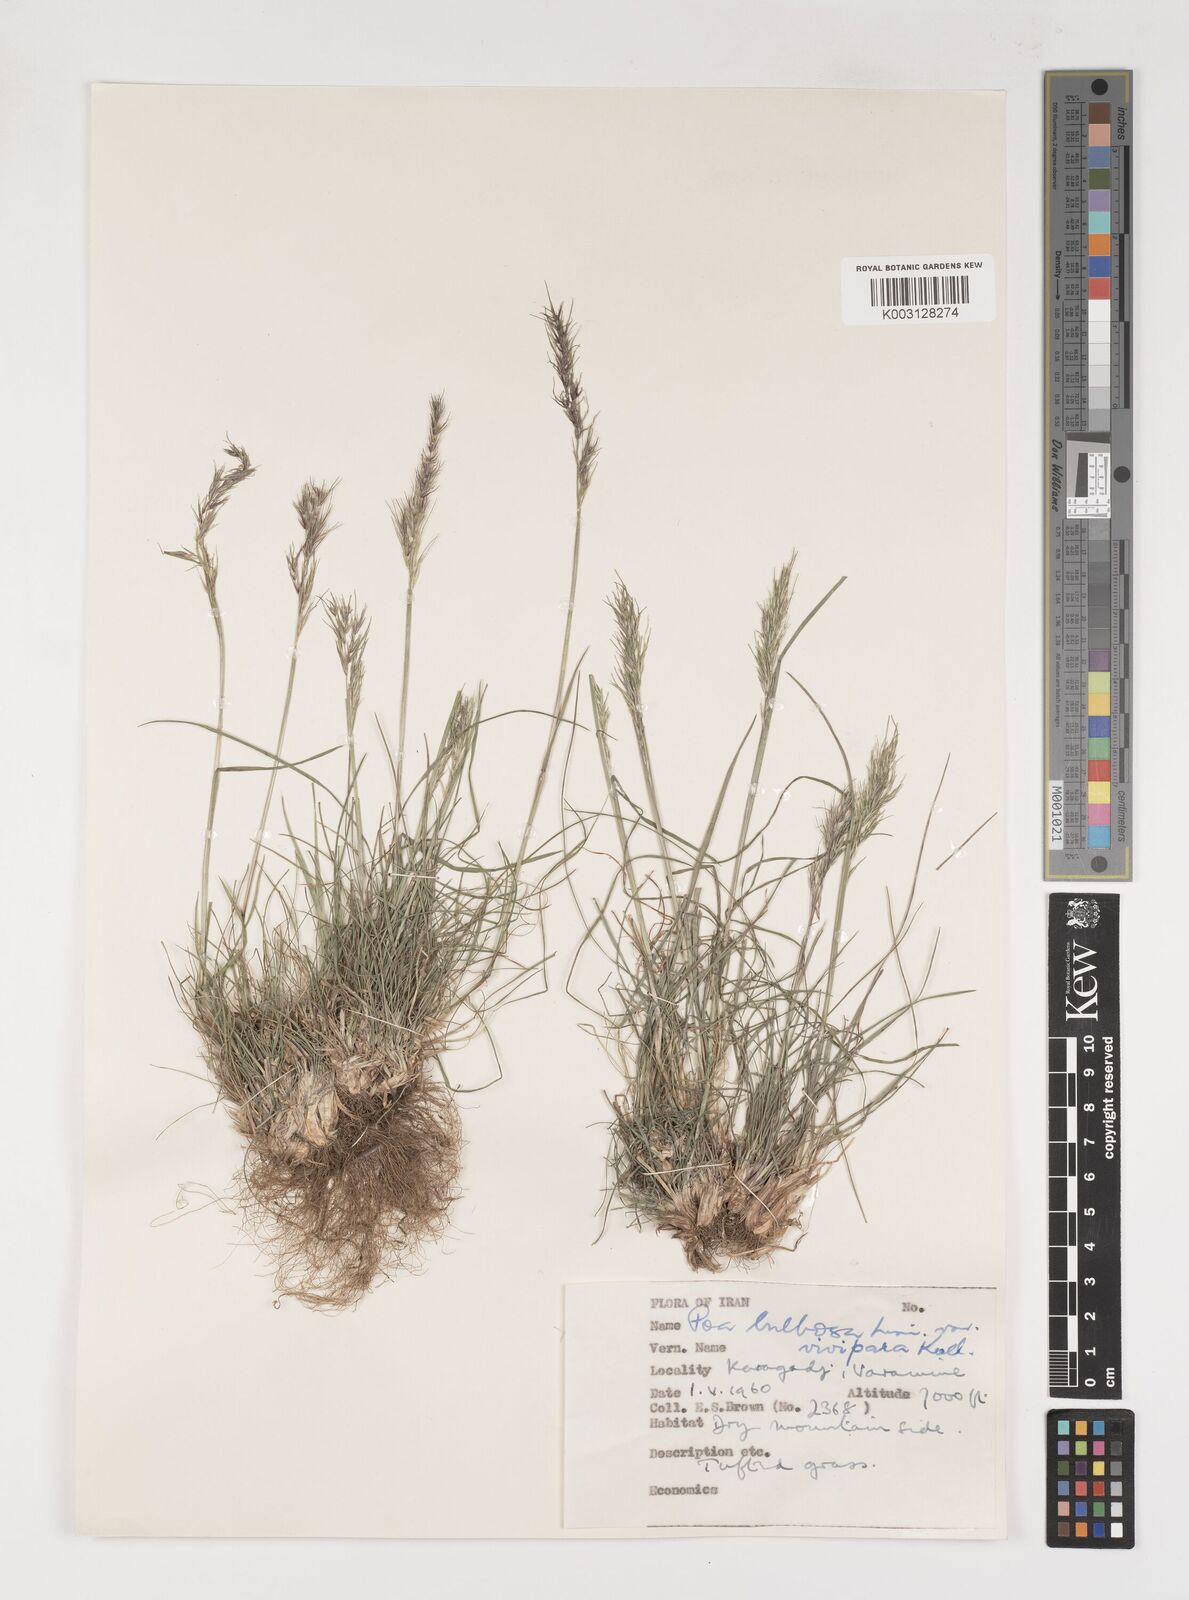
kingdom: Plantae
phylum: Tracheophyta
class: Liliopsida
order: Poales
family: Poaceae
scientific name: Poaceae
